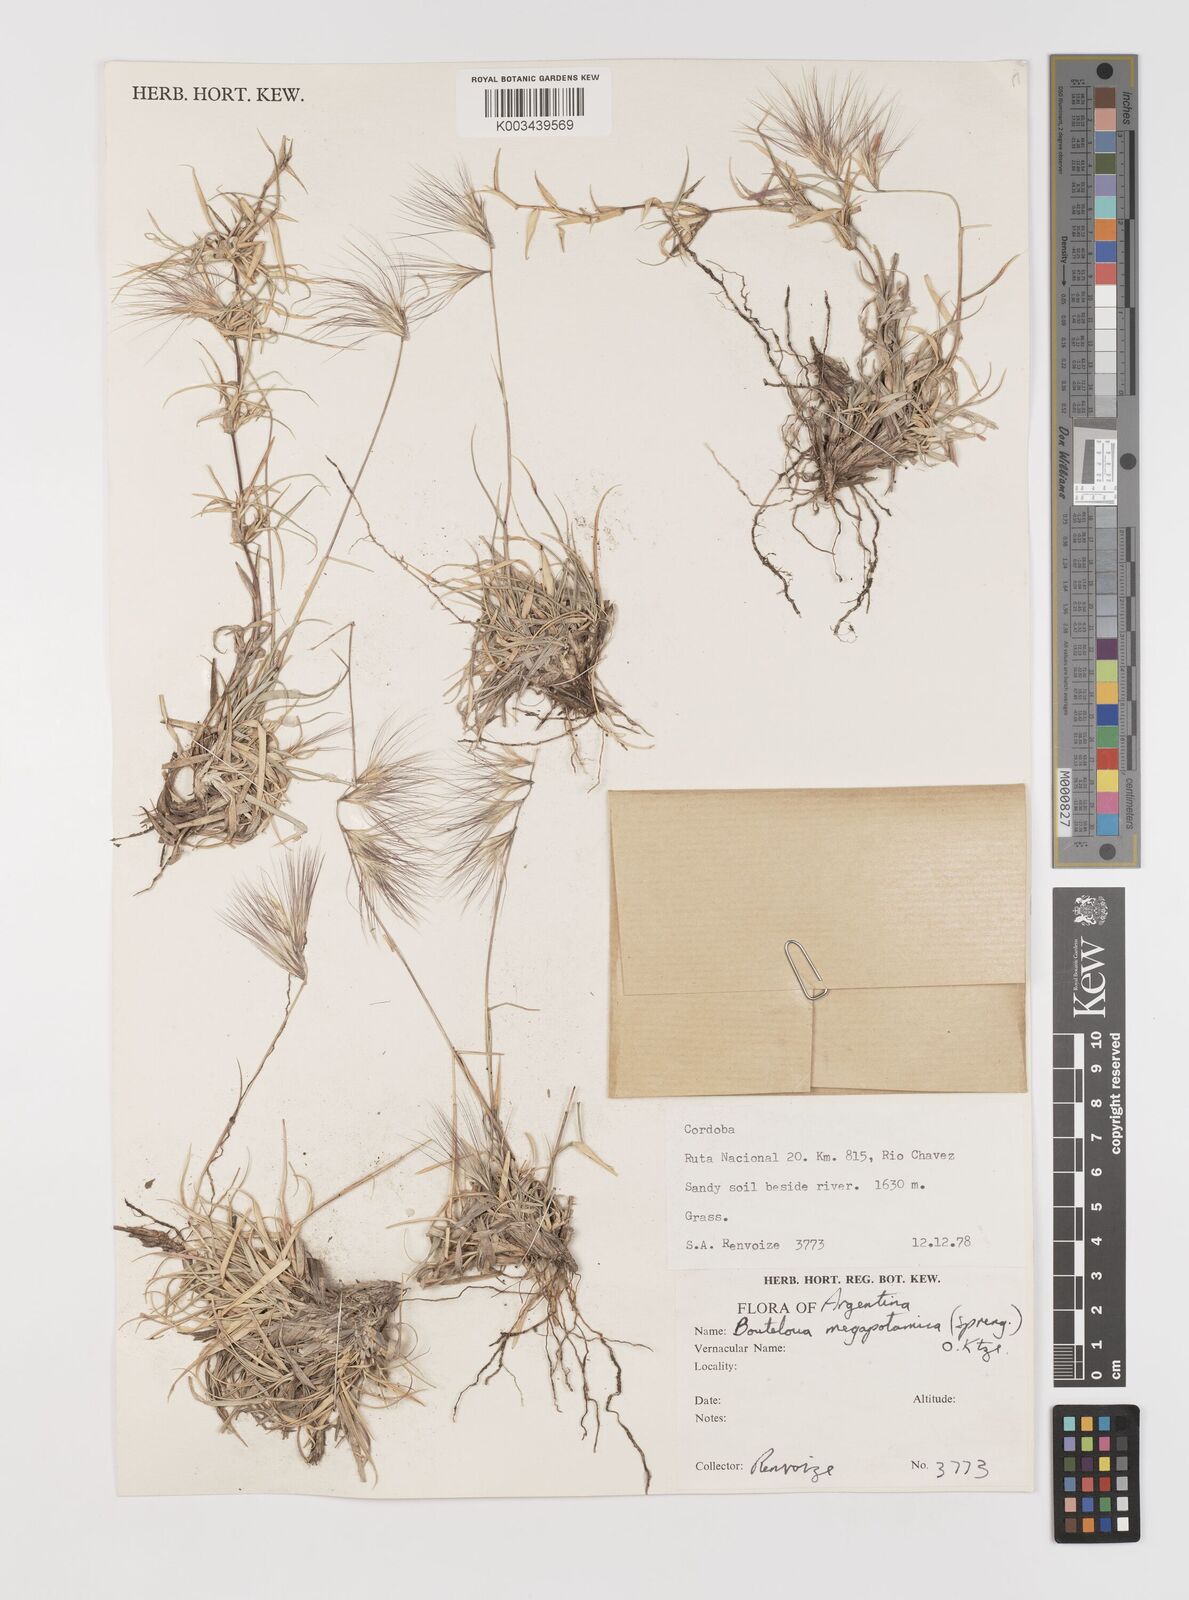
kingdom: Plantae
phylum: Tracheophyta
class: Liliopsida
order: Poales
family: Poaceae
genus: Bouteloua
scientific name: Bouteloua megapotamica
